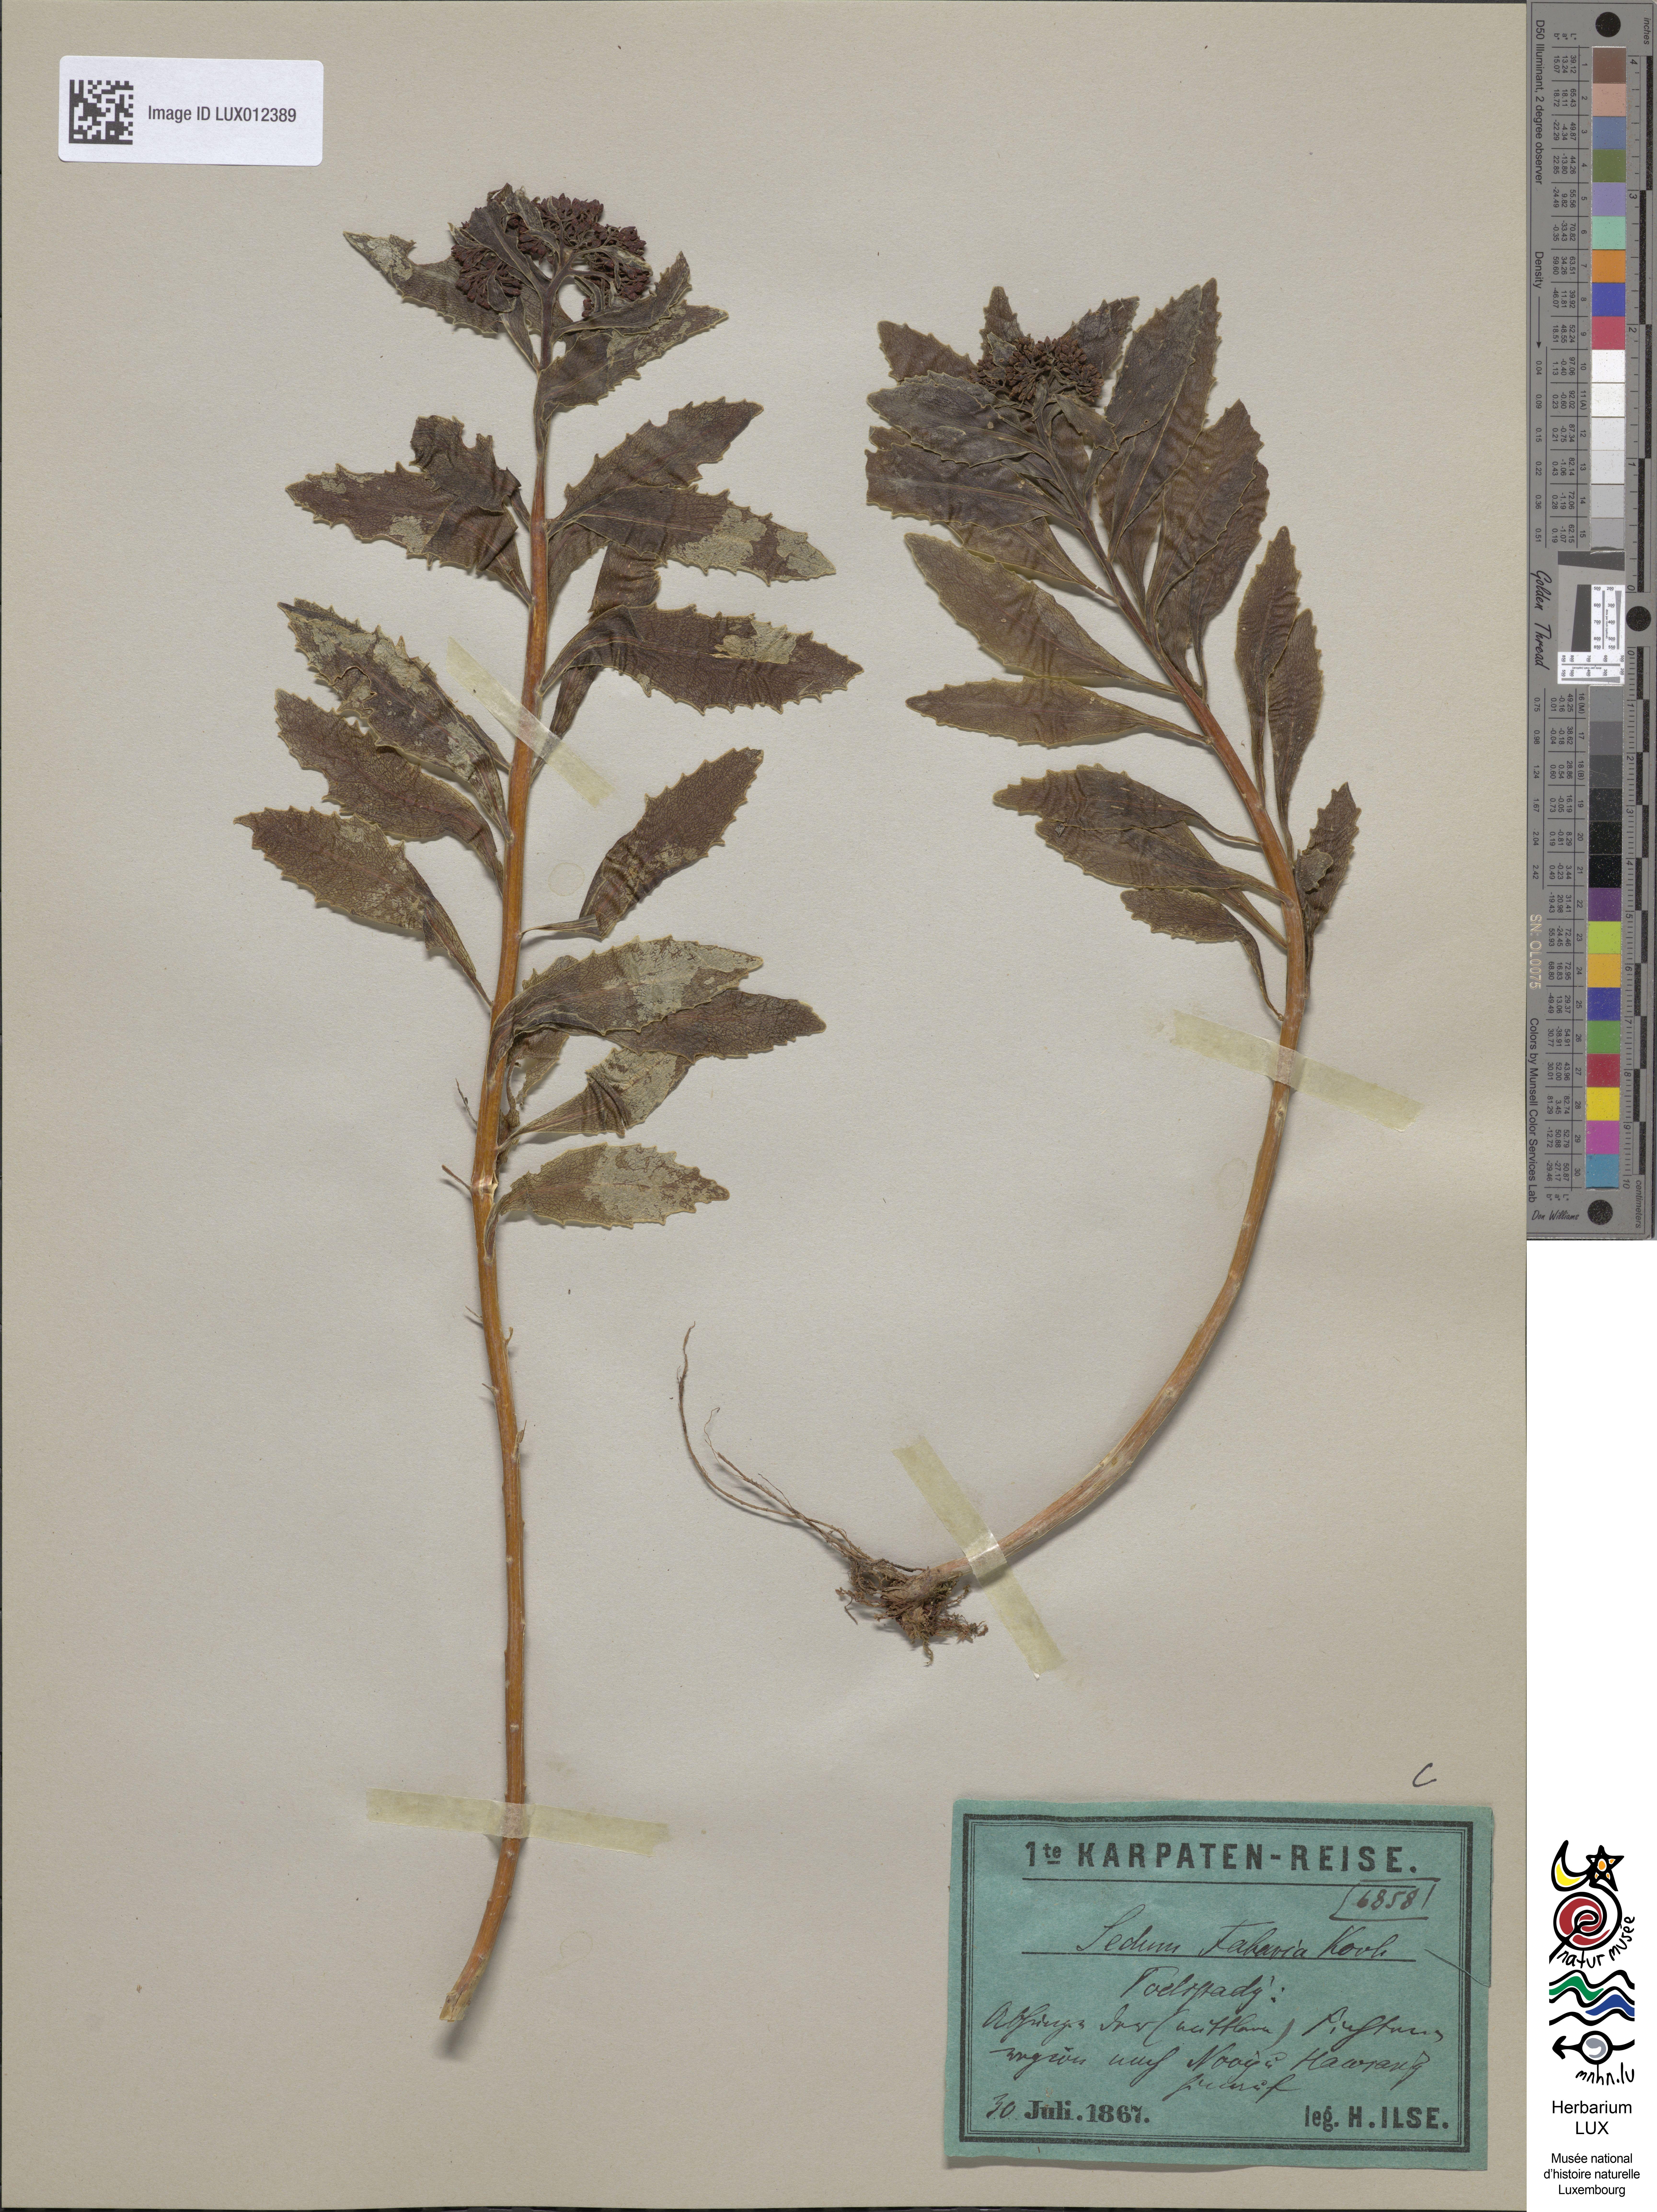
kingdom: Plantae
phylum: Tracheophyta
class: Magnoliopsida
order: Saxifragales
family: Crassulaceae
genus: Hylotelephium
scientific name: Hylotelephium vulgare
